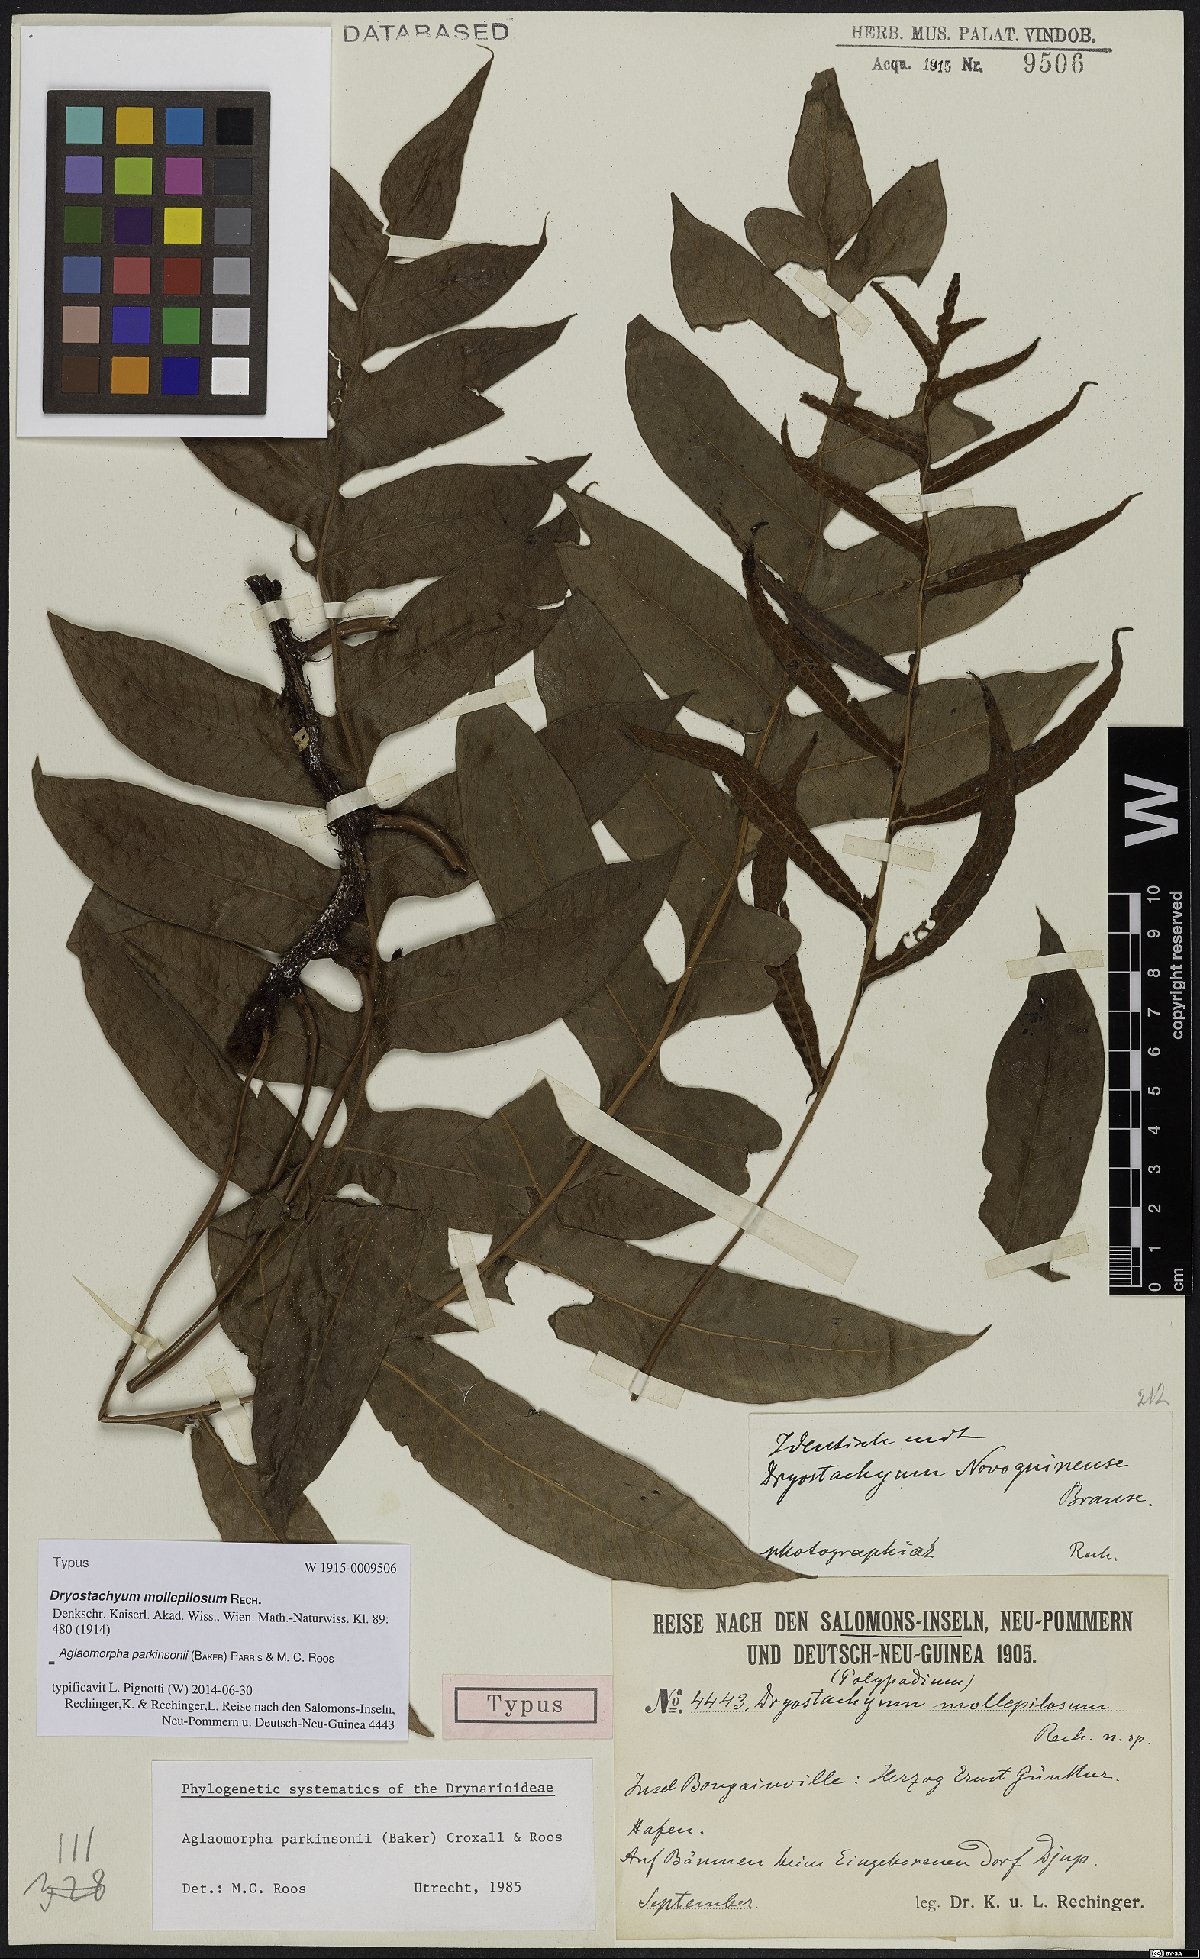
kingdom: Plantae
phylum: Tracheophyta
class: Polypodiopsida
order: Polypodiales
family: Polypodiaceae
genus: Drynaria
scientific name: Drynaria parkinsonii
